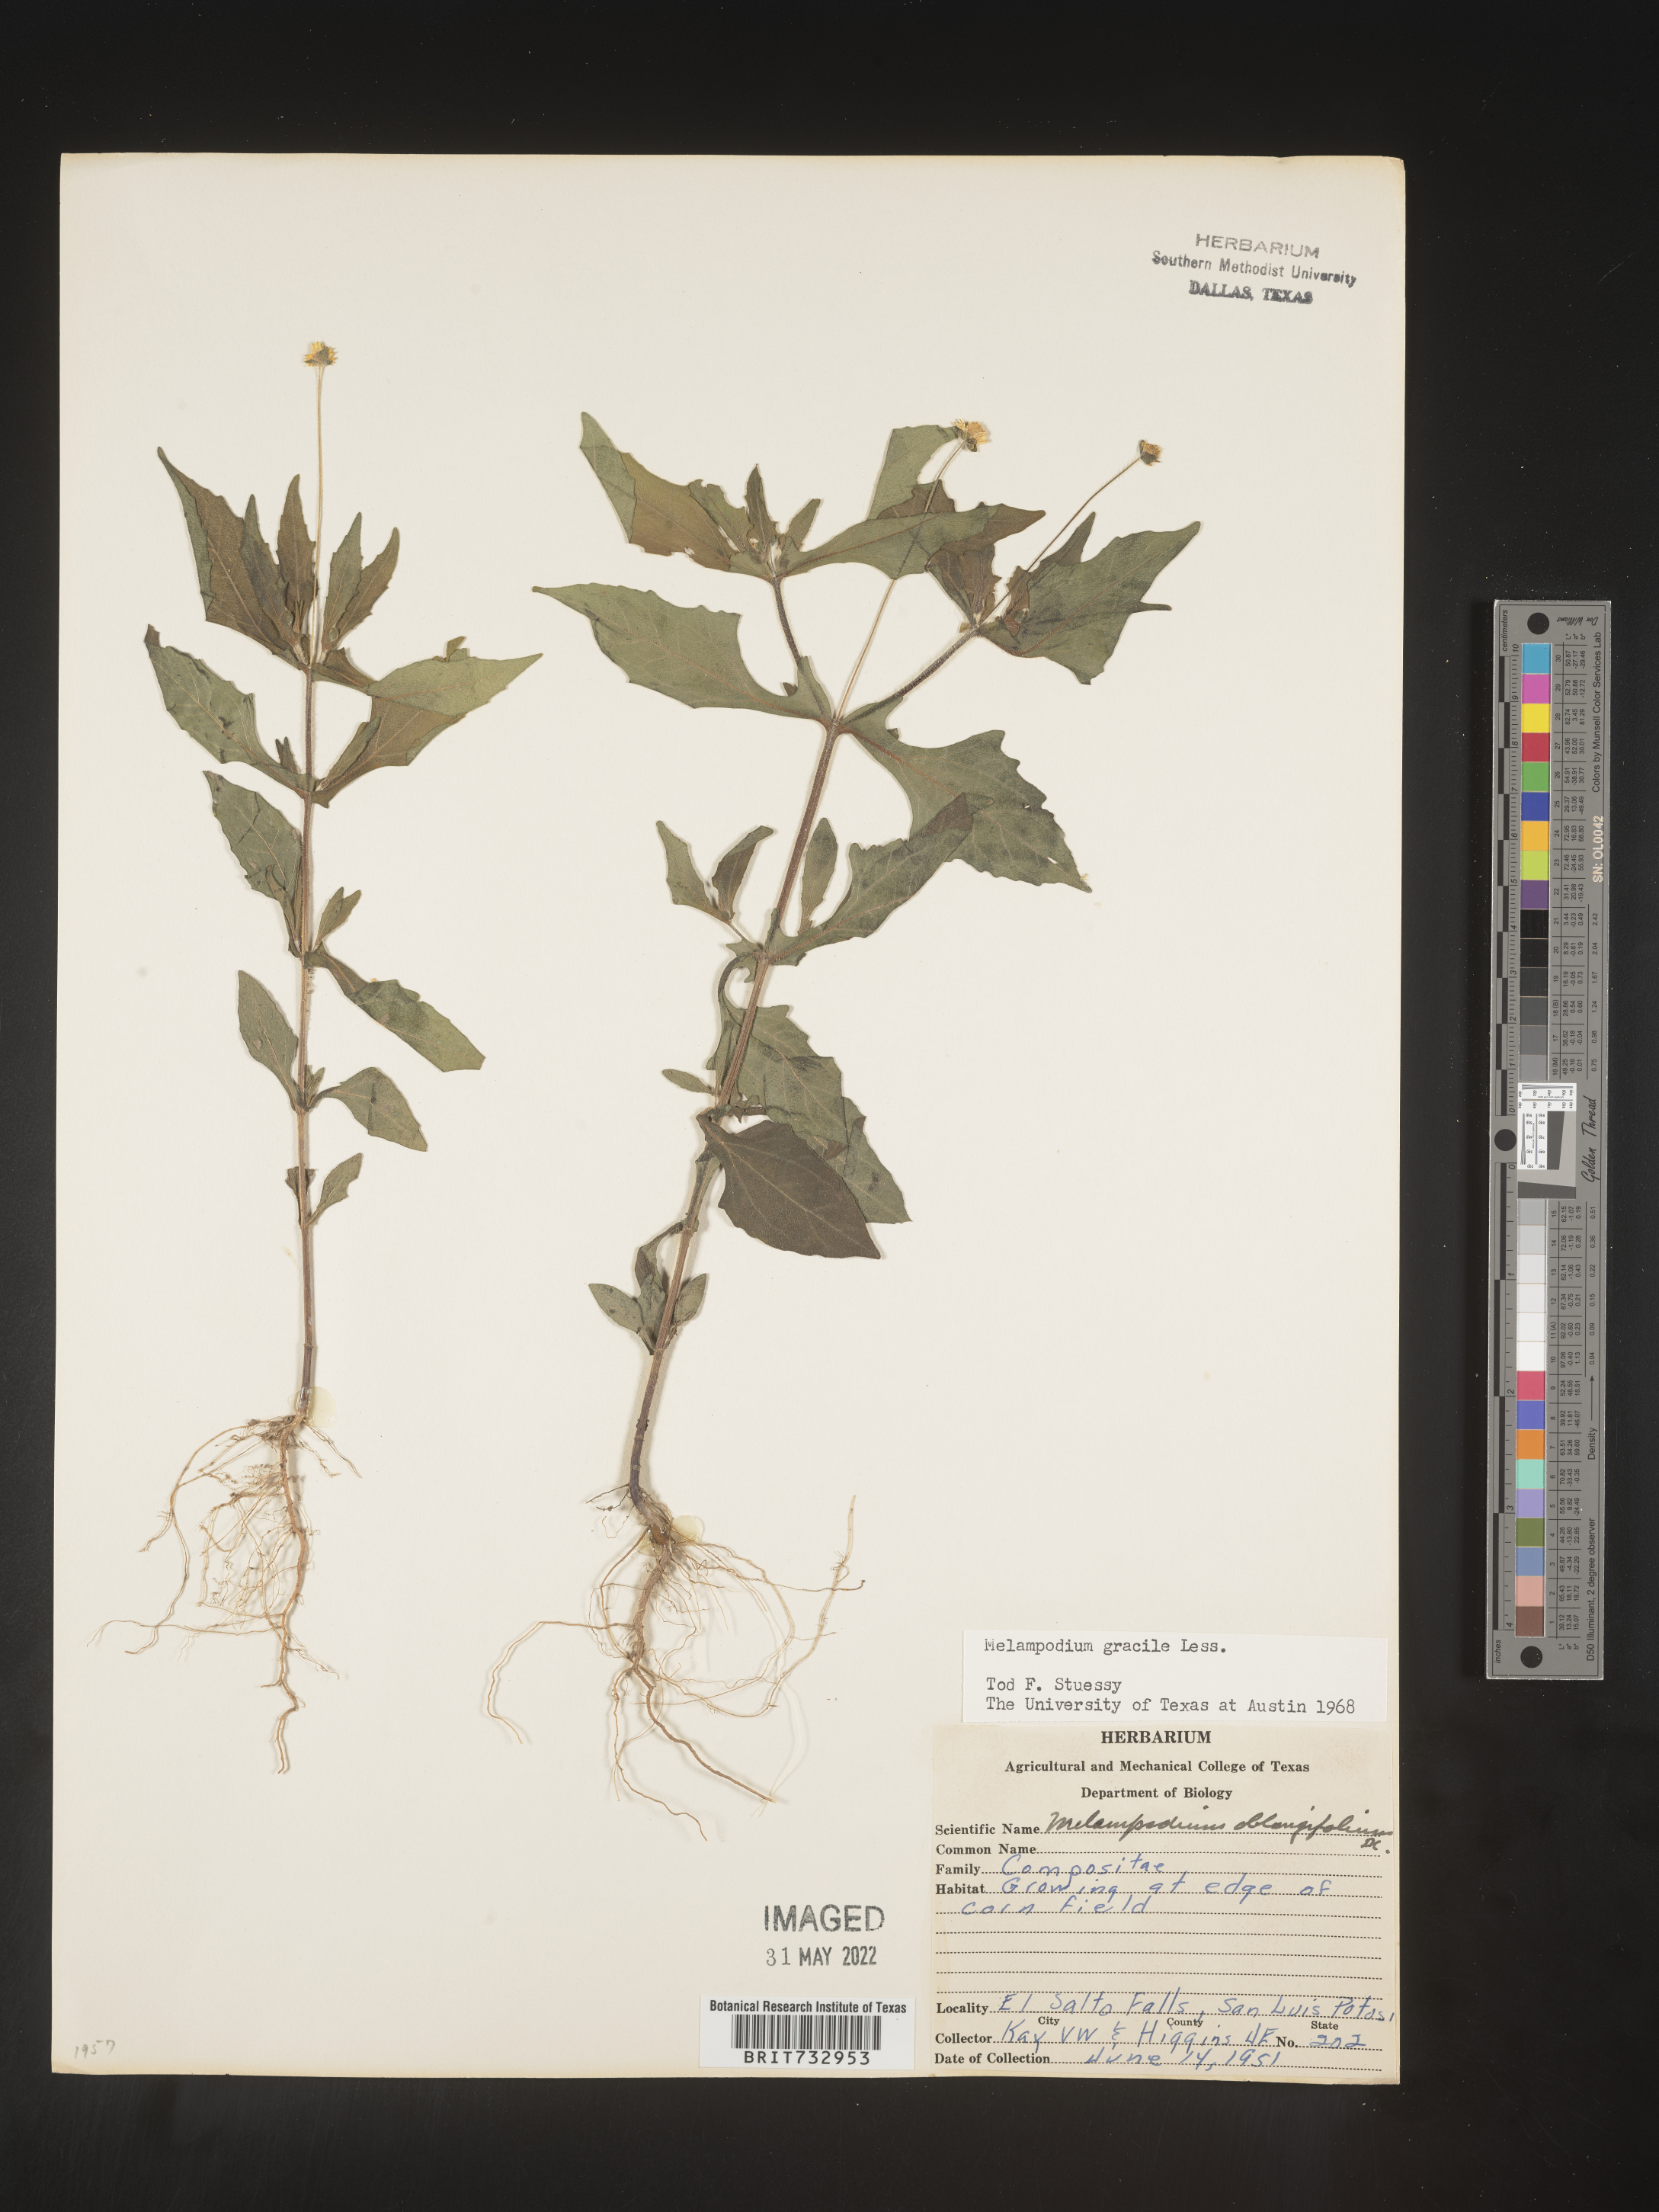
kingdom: Plantae
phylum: Tracheophyta
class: Magnoliopsida
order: Asterales
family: Asteraceae
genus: Melampodium
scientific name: Melampodium gracile
